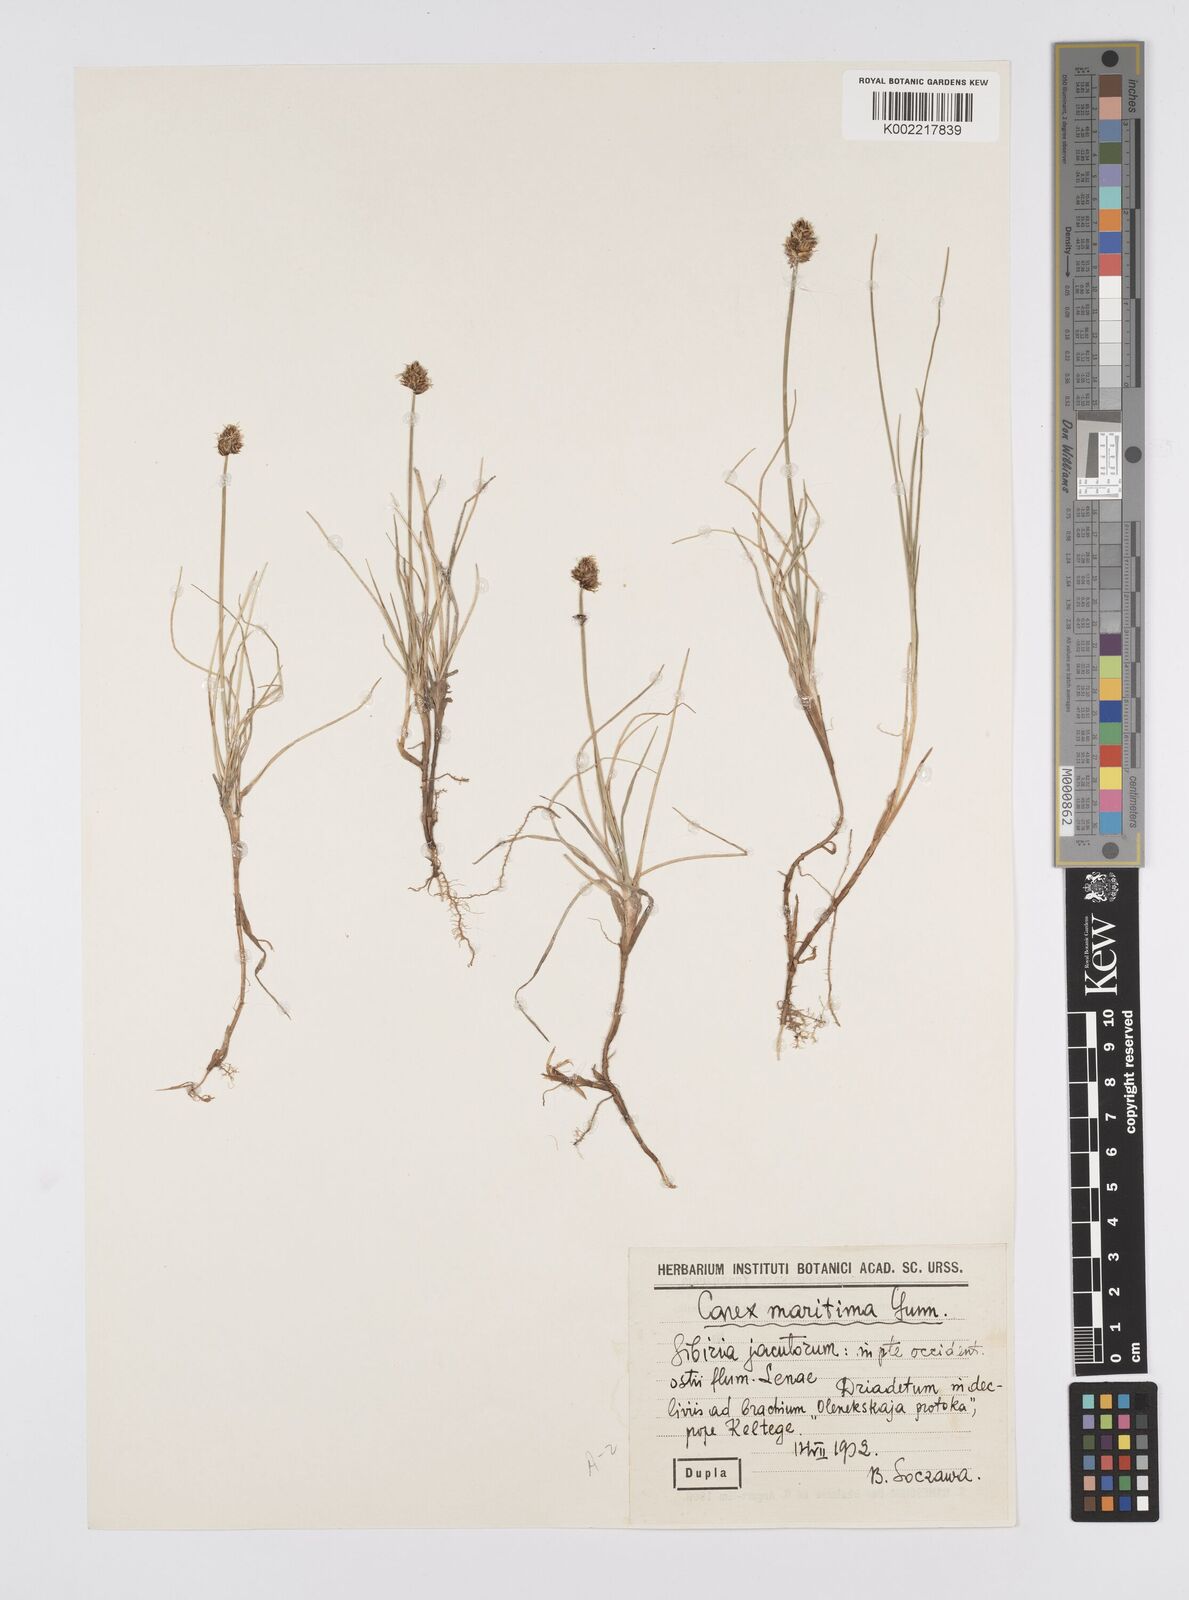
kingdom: Plantae
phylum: Tracheophyta
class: Liliopsida
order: Poales
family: Cyperaceae
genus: Carex
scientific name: Carex maritima
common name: Curved sedge
